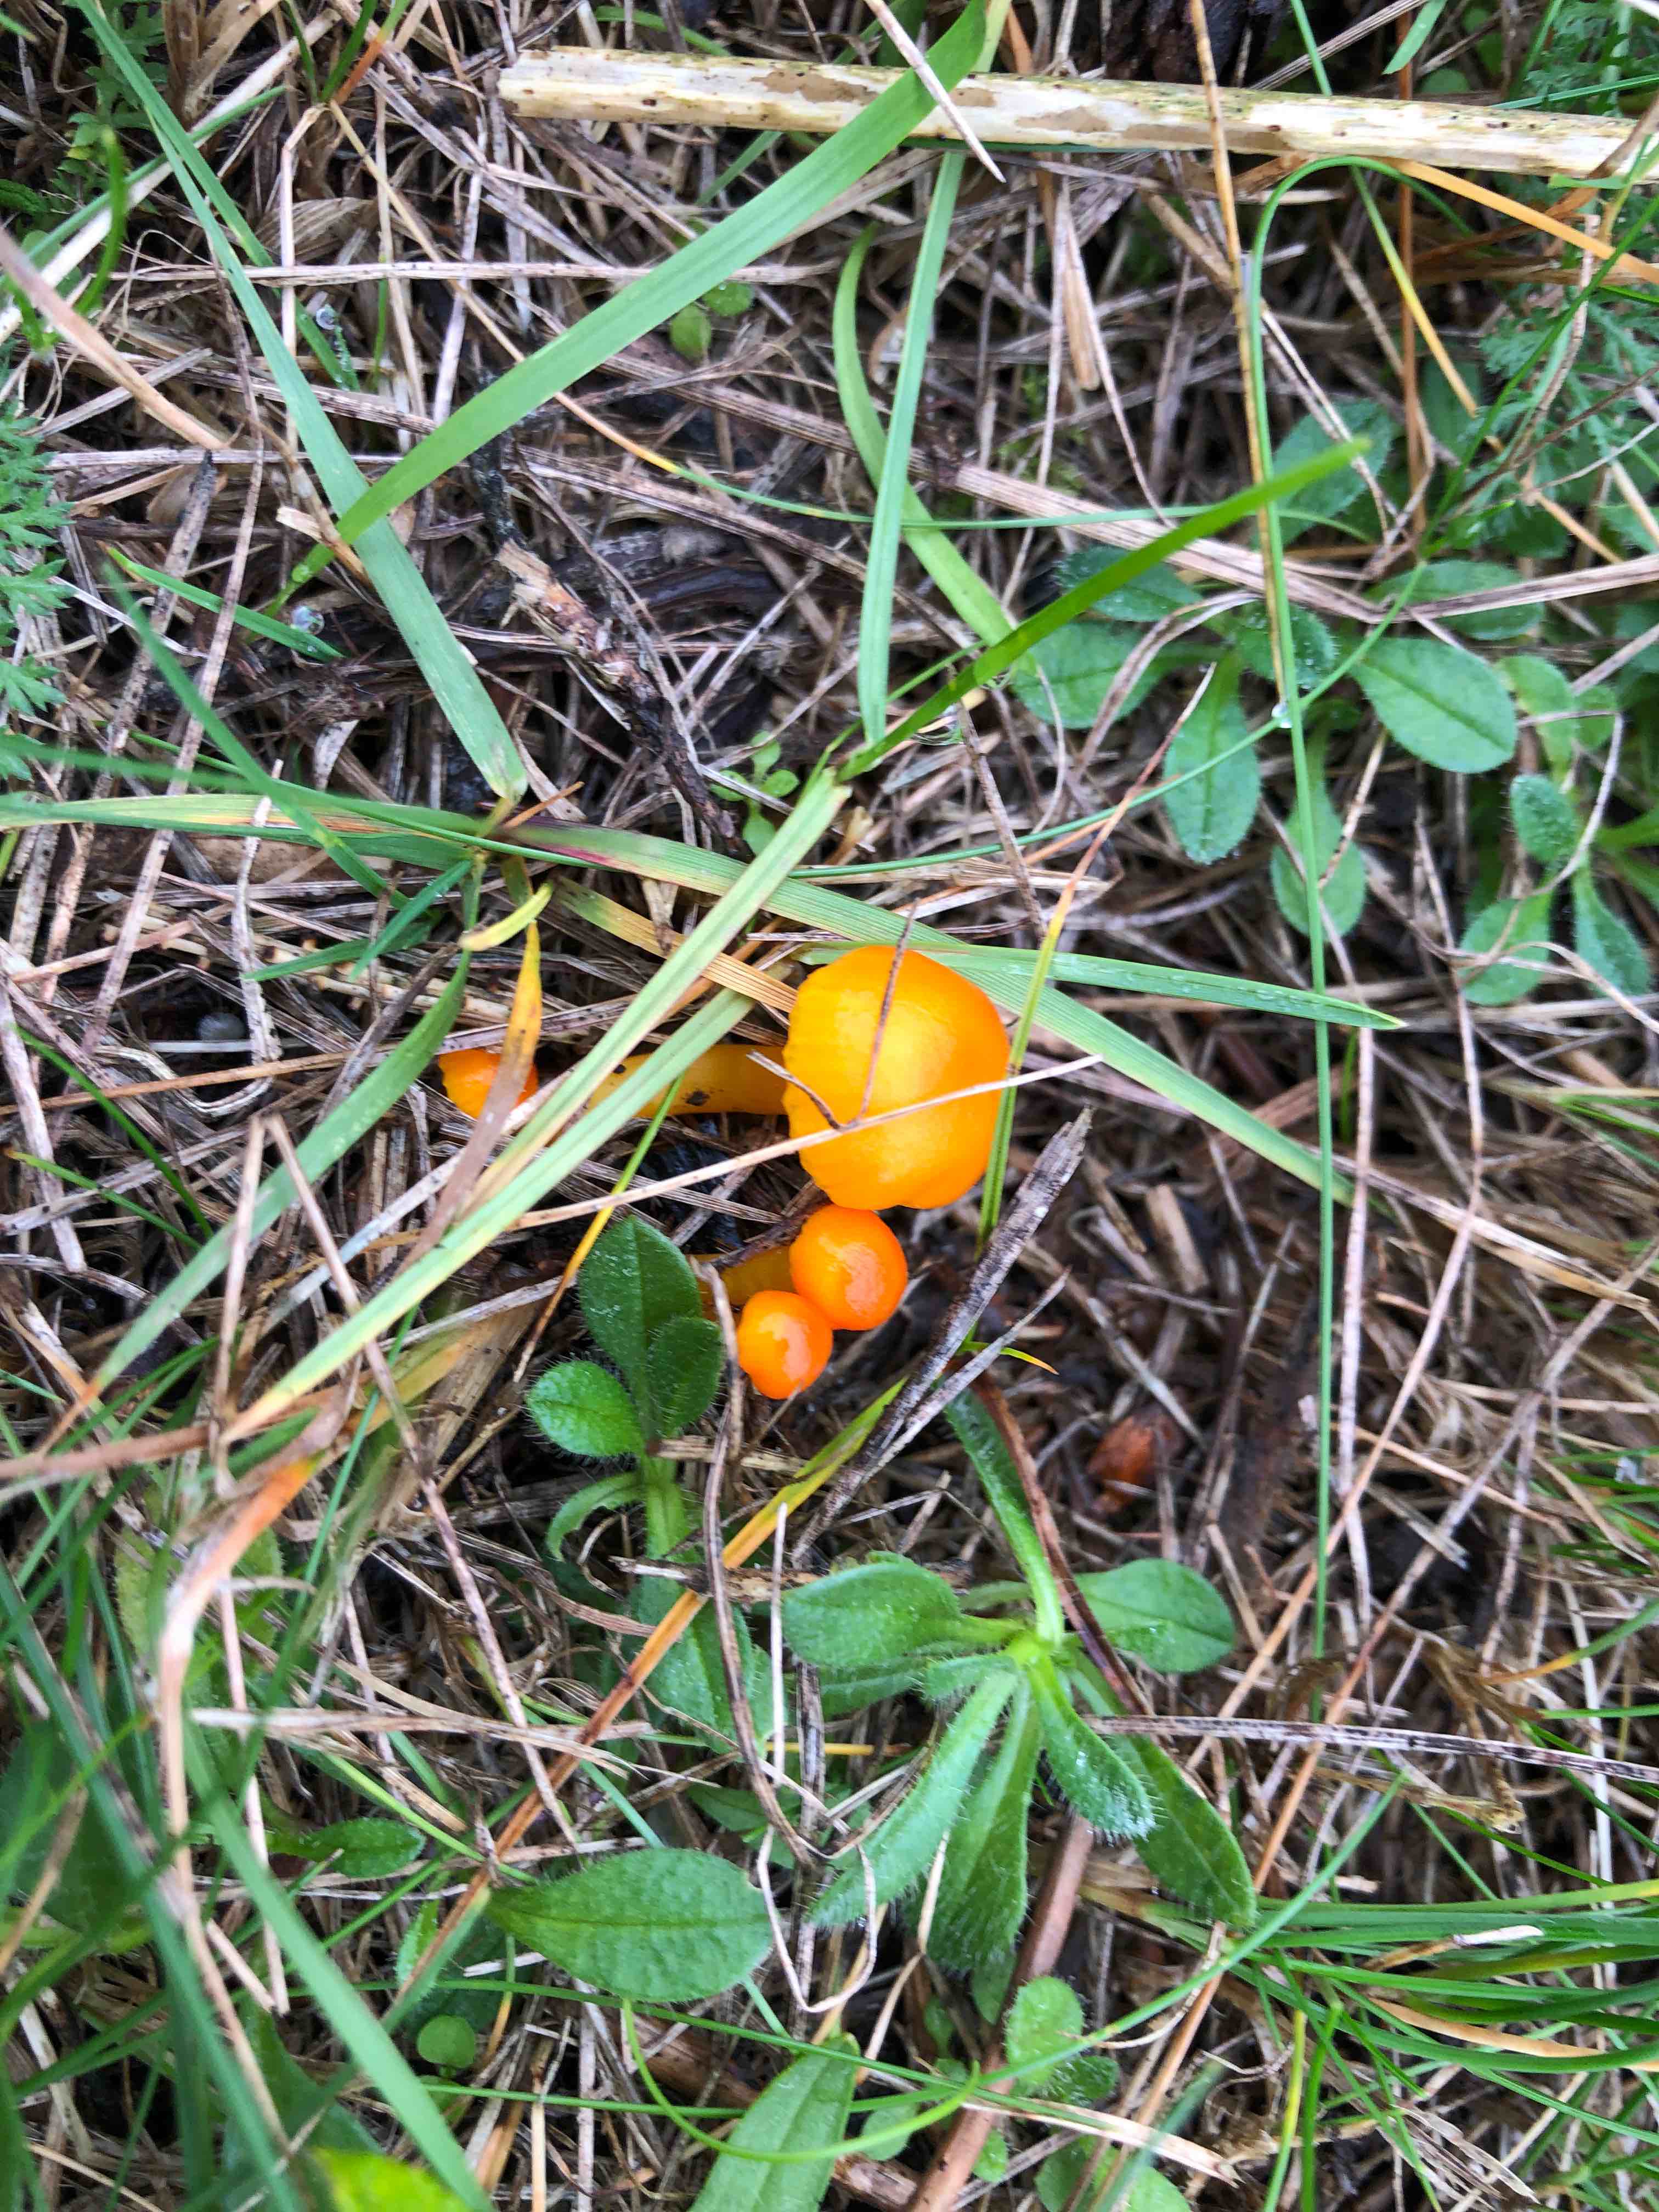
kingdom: Fungi
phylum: Basidiomycota
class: Agaricomycetes
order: Agaricales
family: Hygrophoraceae
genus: Hygrocybe
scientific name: Hygrocybe
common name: vokshat
